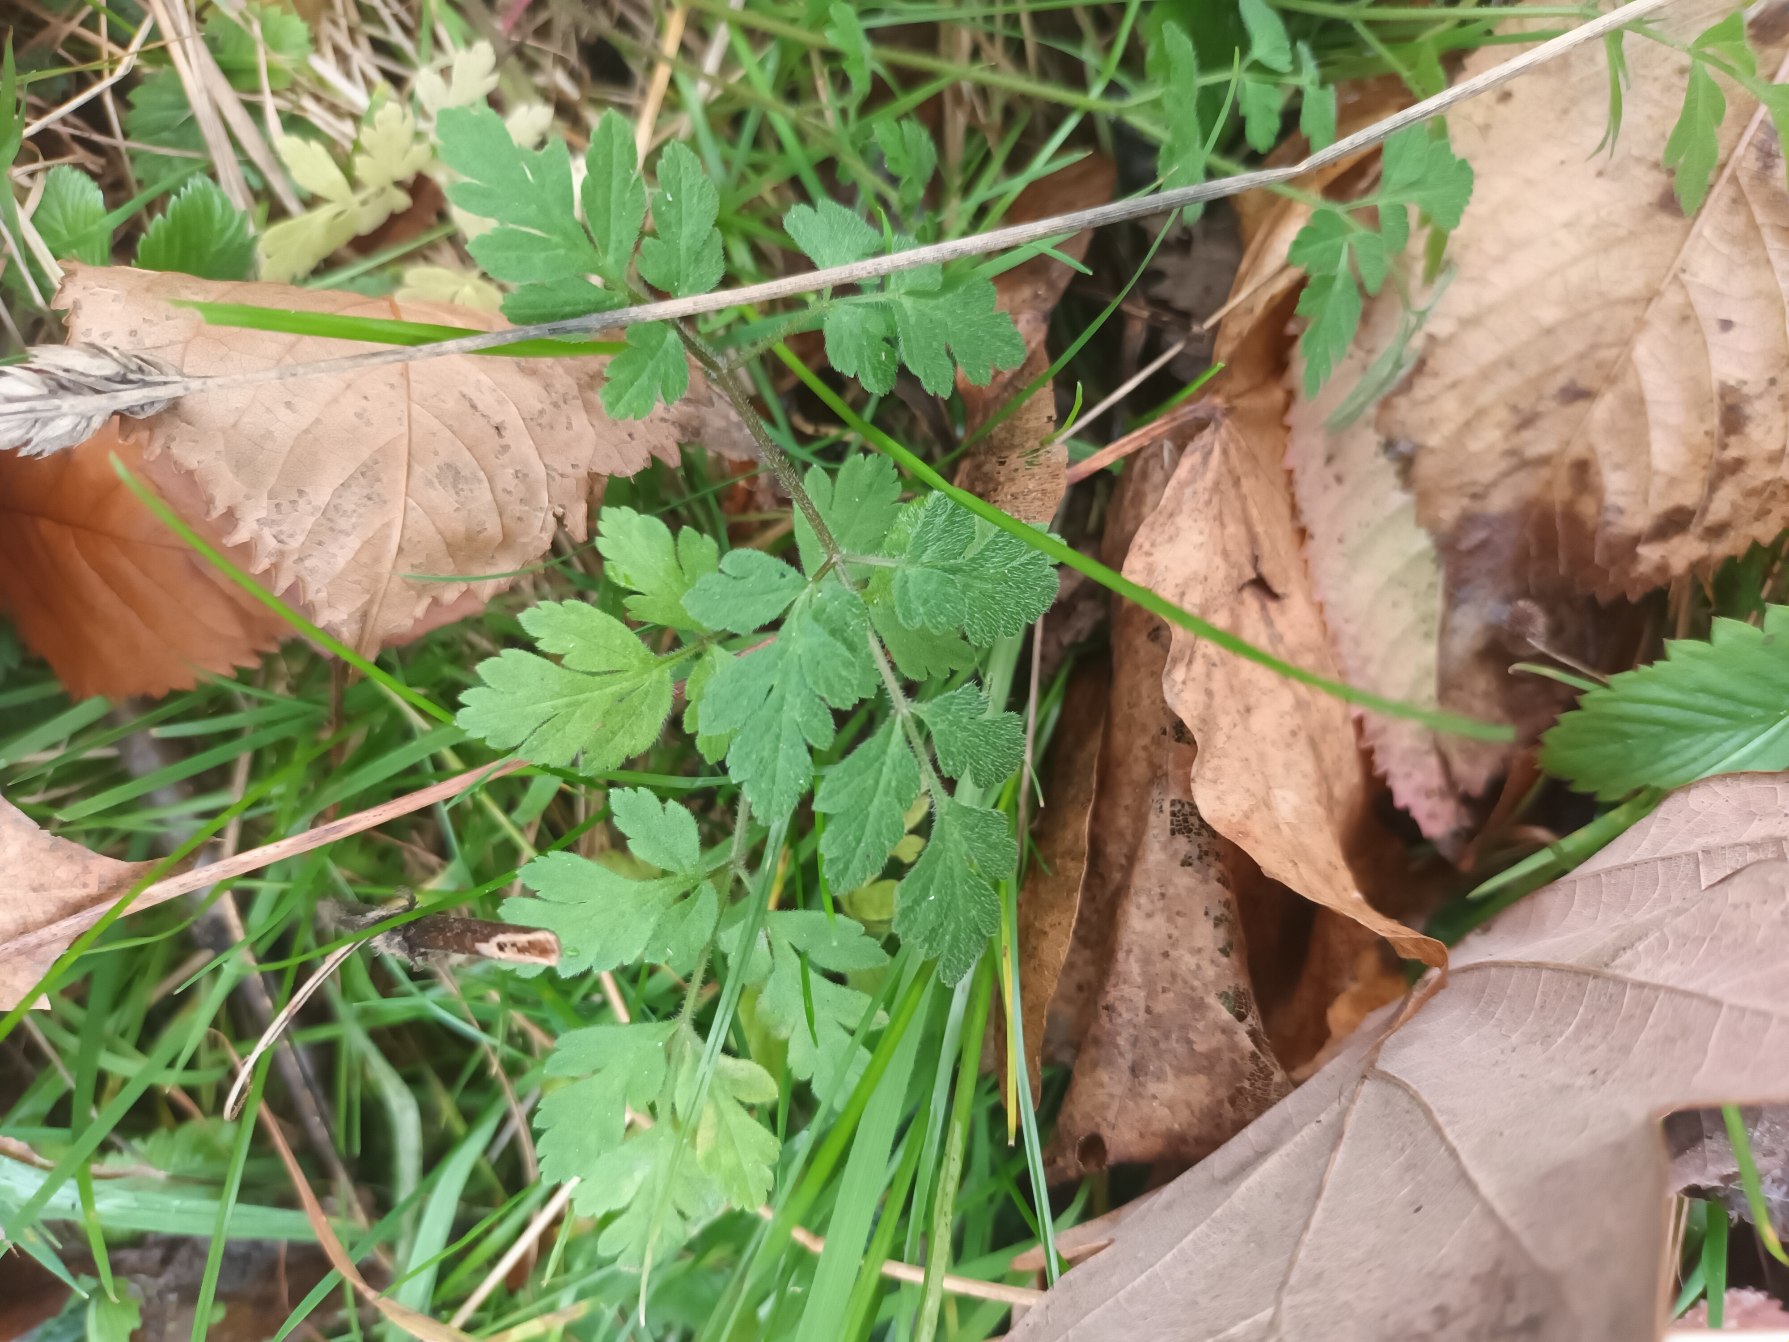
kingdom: Plantae
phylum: Tracheophyta
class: Magnoliopsida
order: Apiales
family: Apiaceae
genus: Chaerophyllum
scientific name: Chaerophyllum temulum
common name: Almindelig hulsvøb
